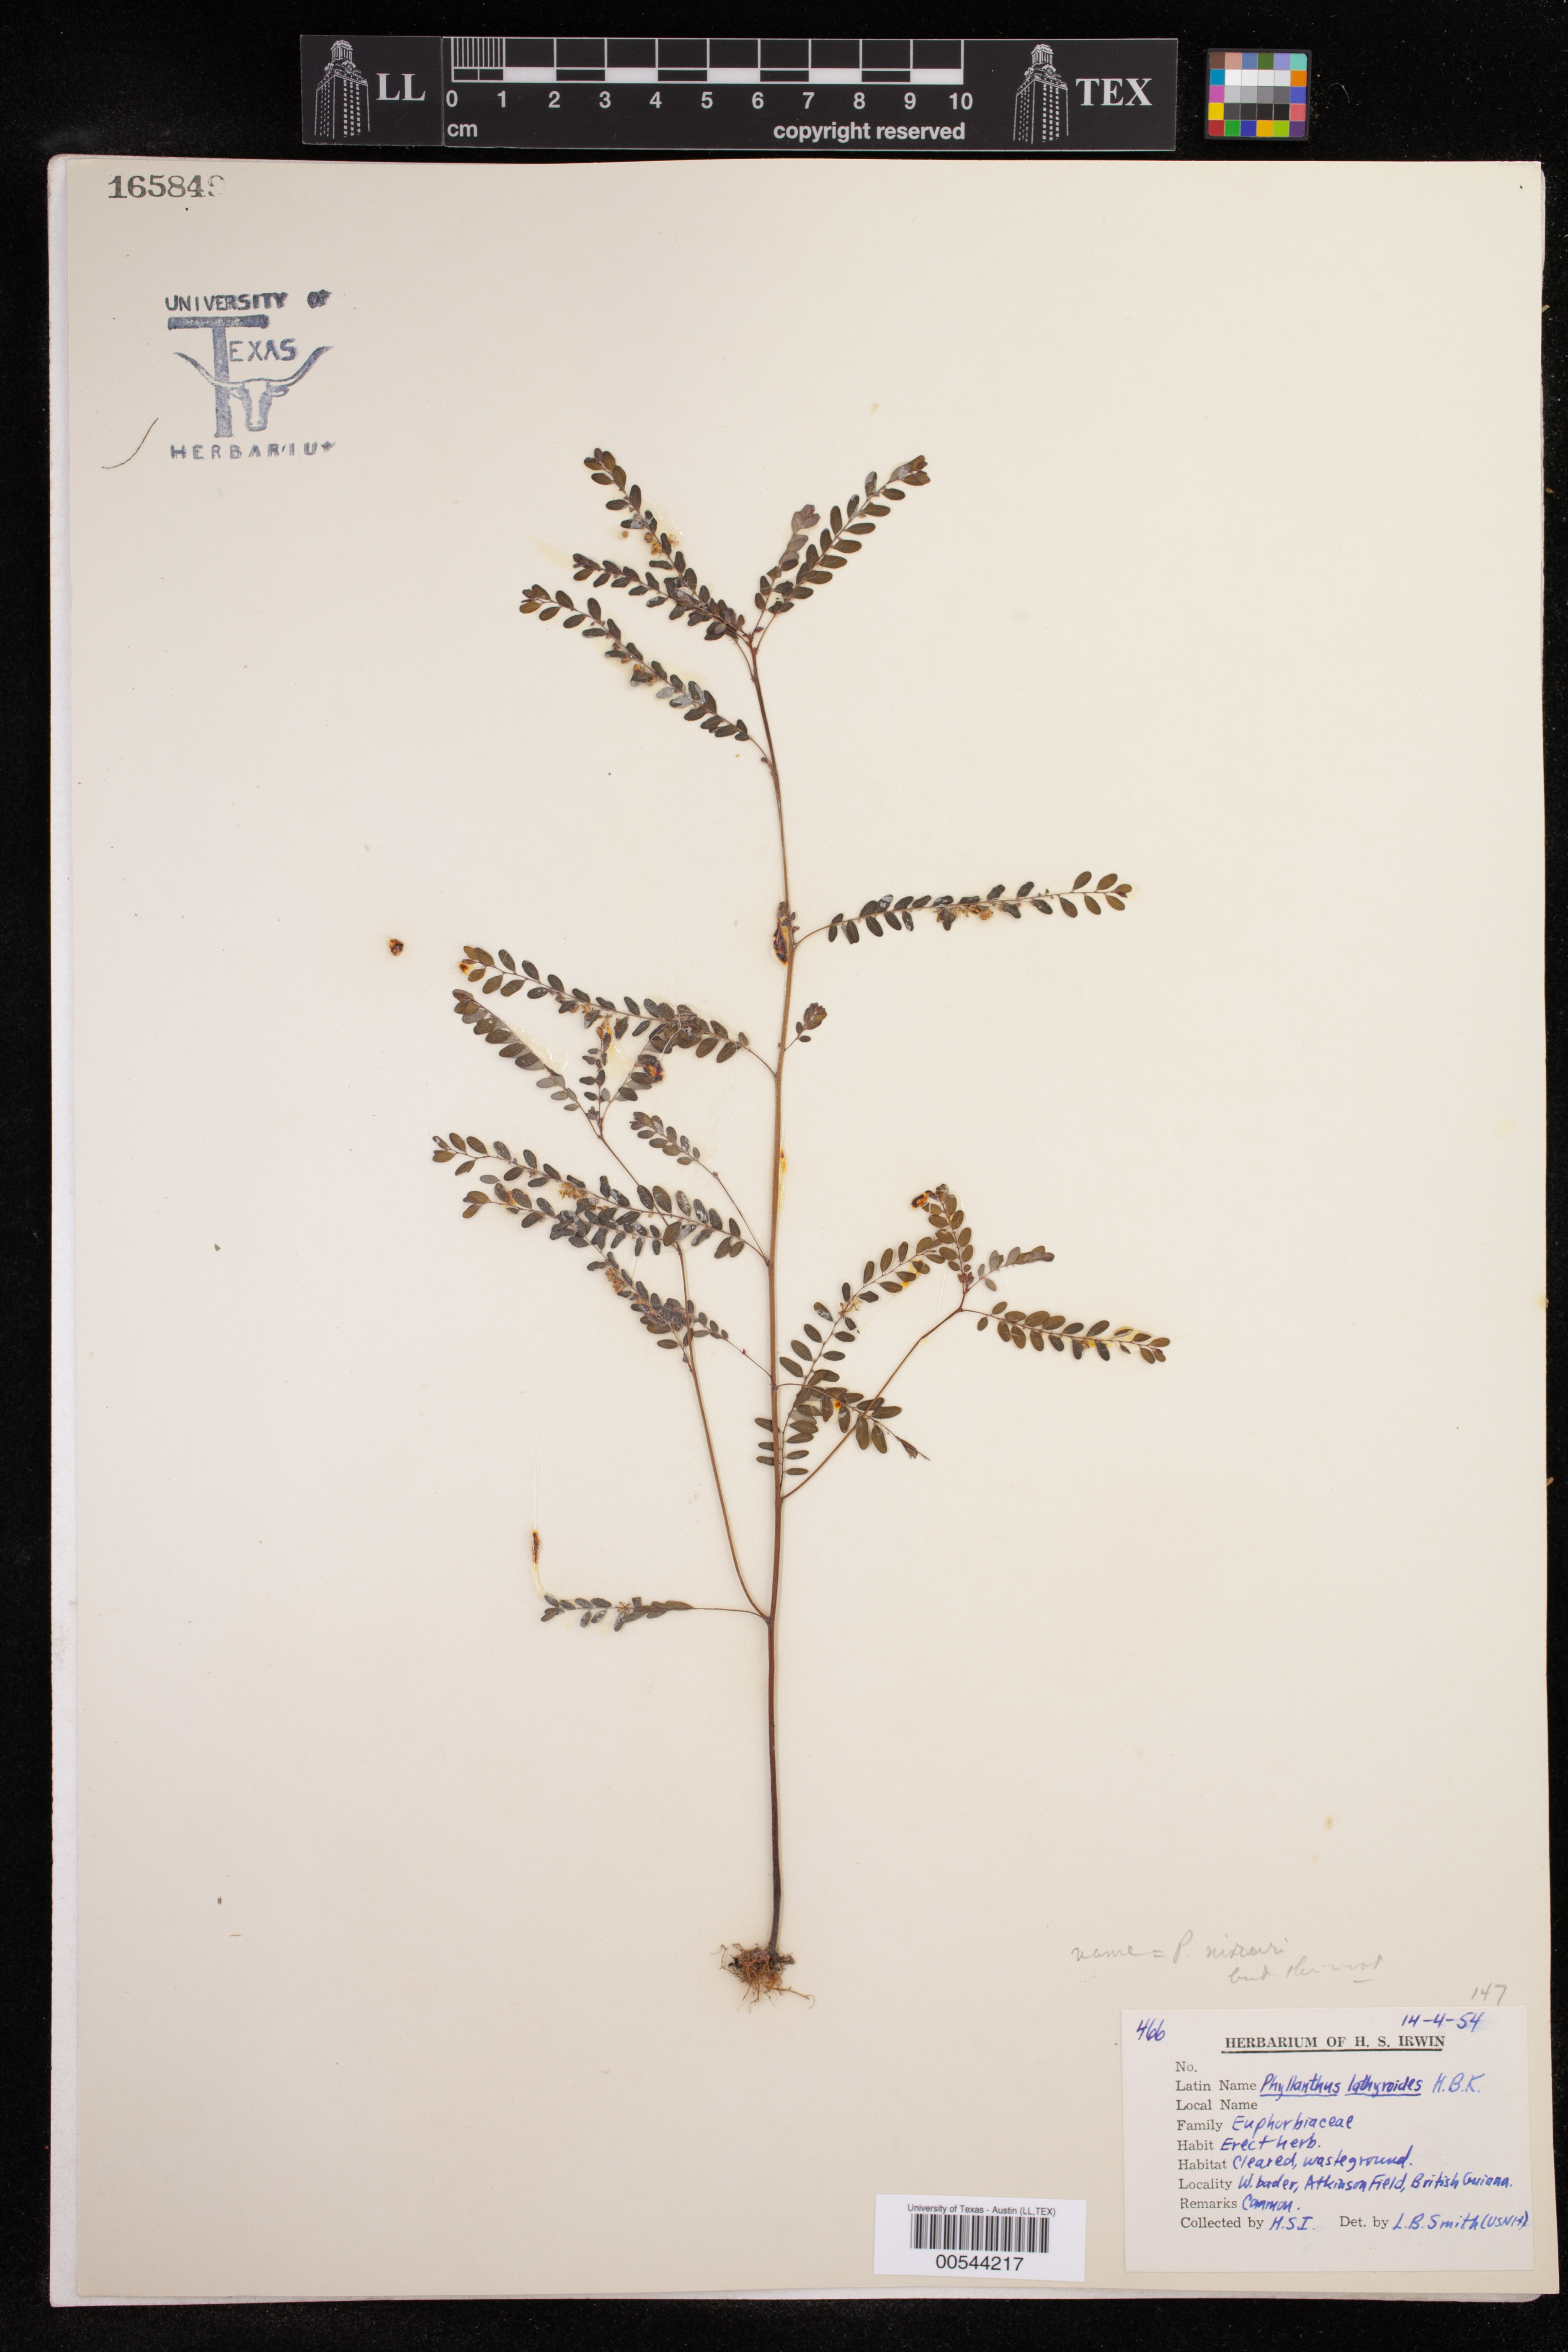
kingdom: Plantae
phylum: Tracheophyta
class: Magnoliopsida
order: Malpighiales
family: Phyllanthaceae
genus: Phyllanthus
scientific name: Phyllanthus niruri
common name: Niruri
